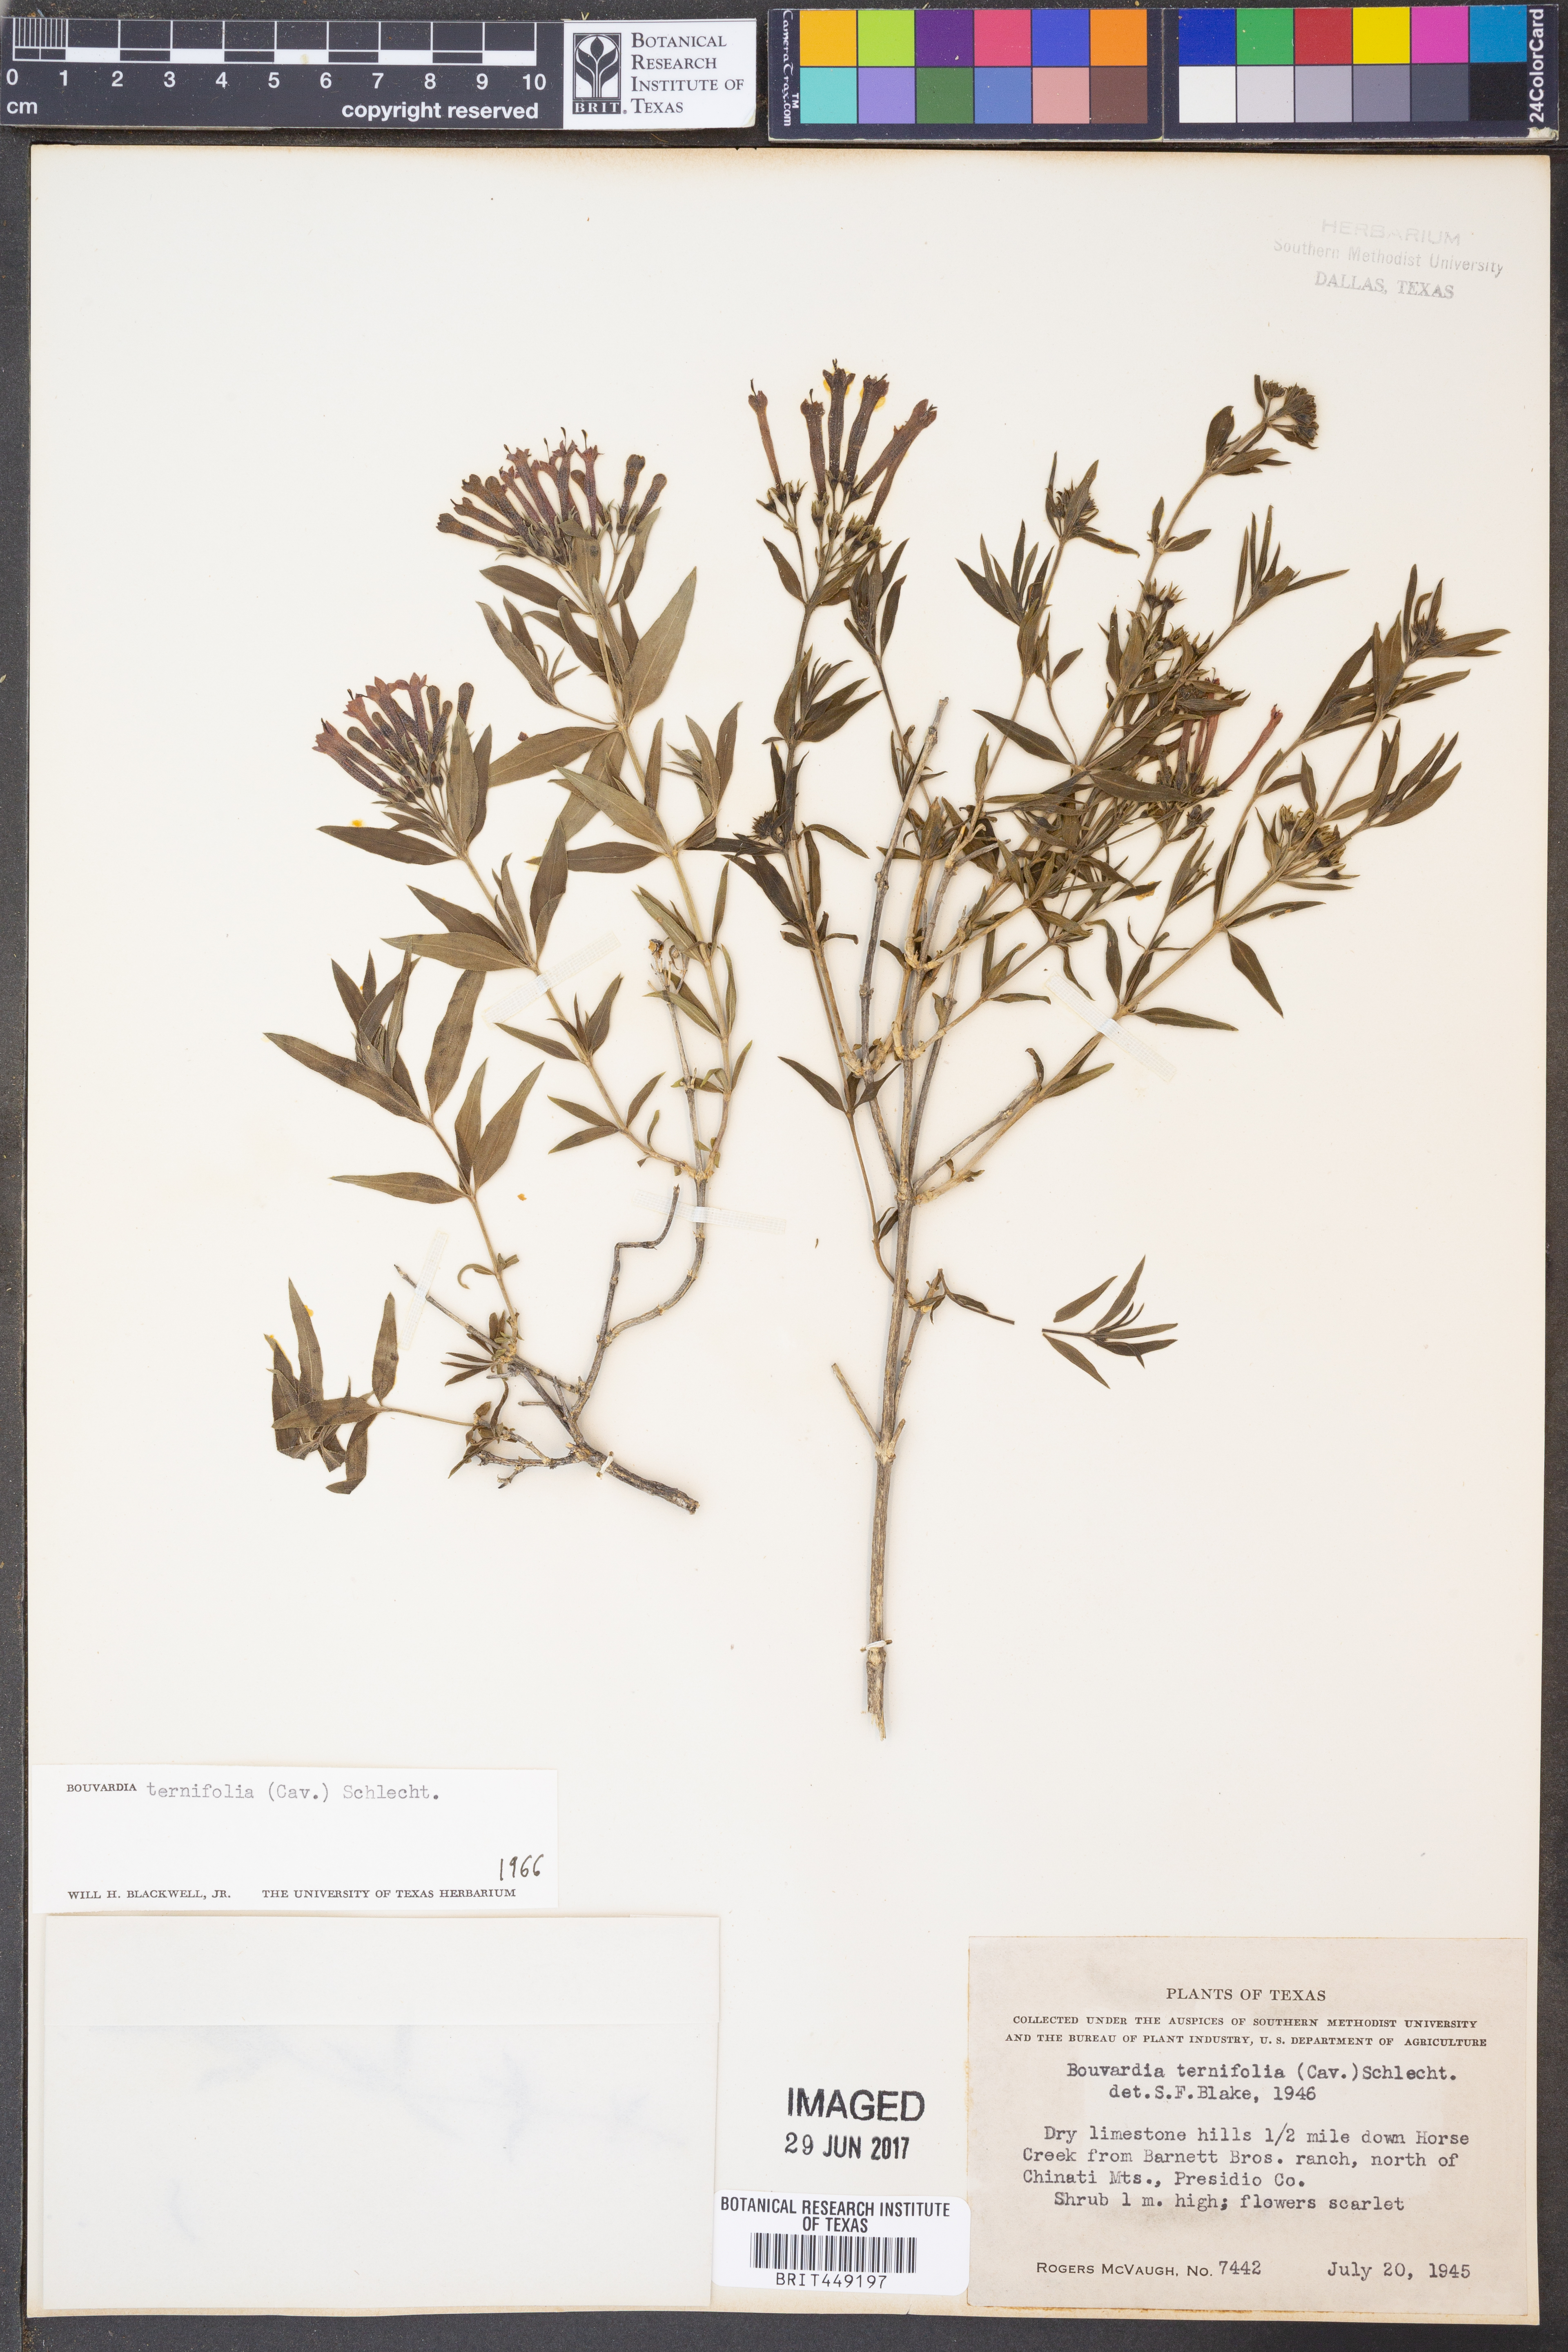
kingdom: Plantae
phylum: Tracheophyta
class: Magnoliopsida
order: Gentianales
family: Rubiaceae
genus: Bouvardia
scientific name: Bouvardia ternifolia
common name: Scarlet bouvardia
